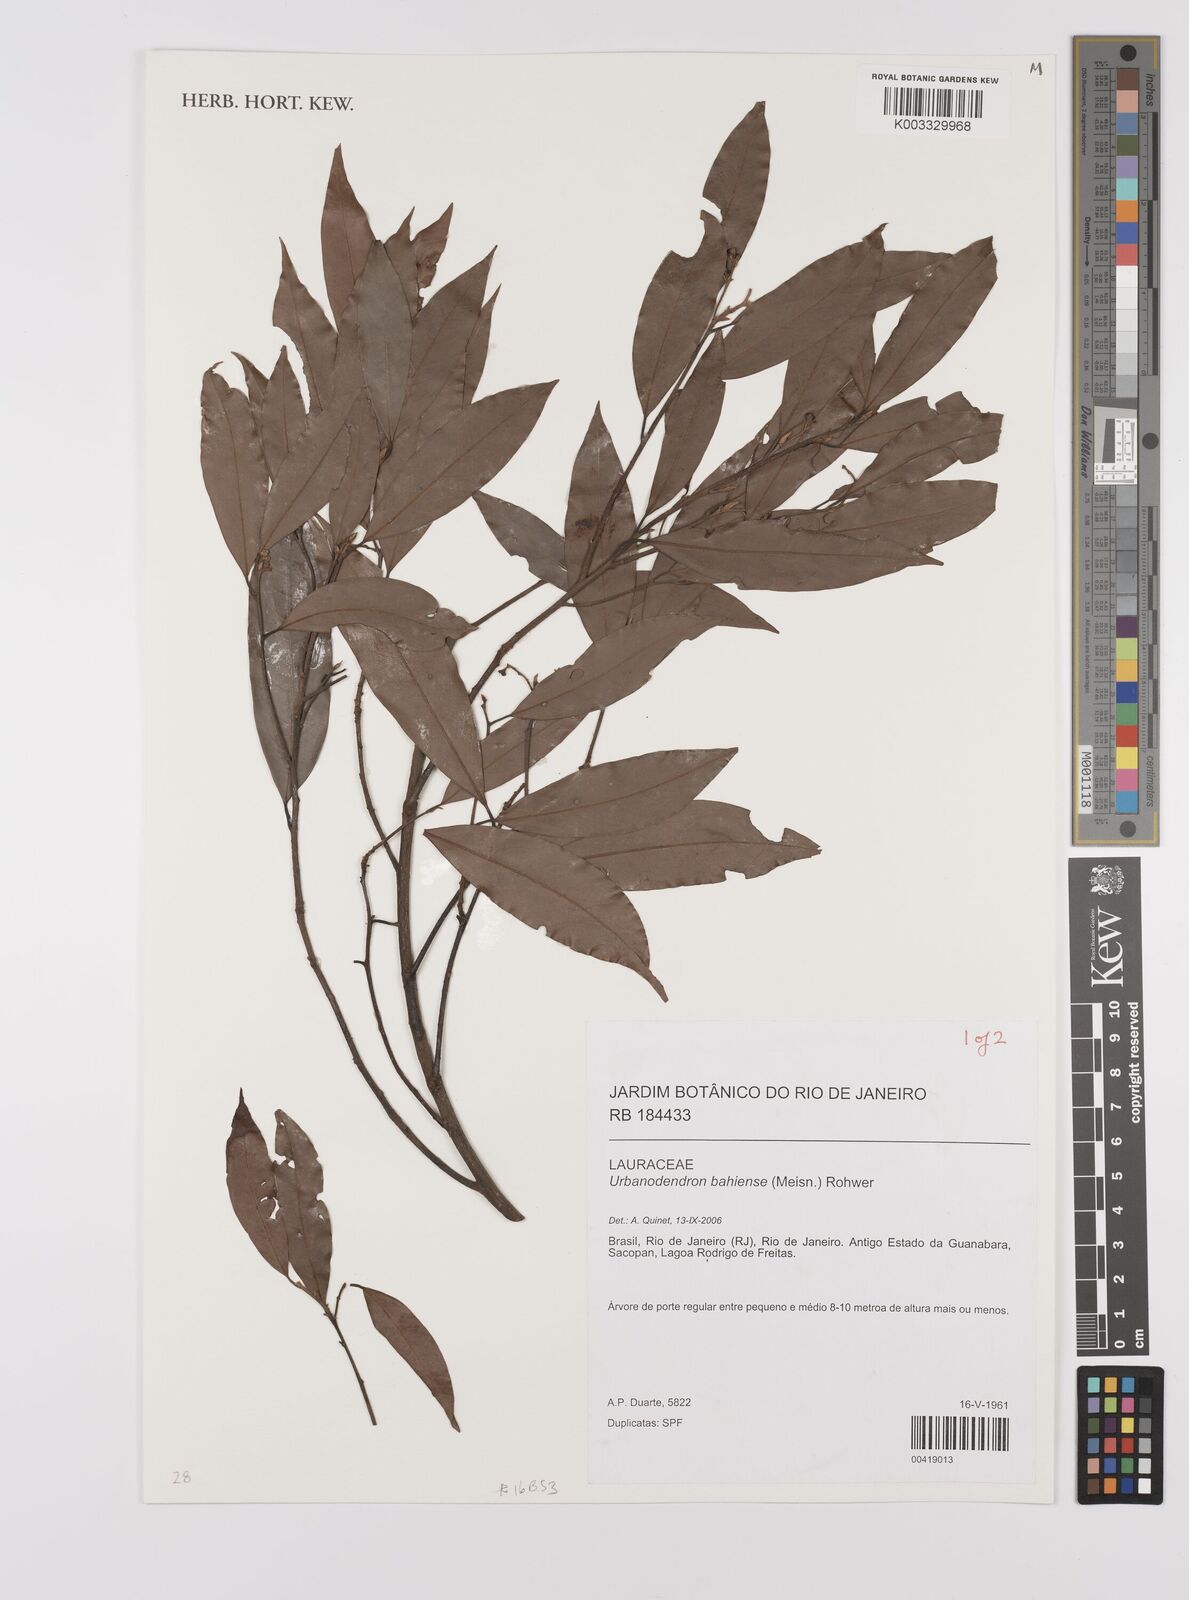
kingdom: Plantae
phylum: Tracheophyta
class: Magnoliopsida
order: Laurales
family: Lauraceae
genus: Urbanodendron
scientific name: Urbanodendron bahiense
